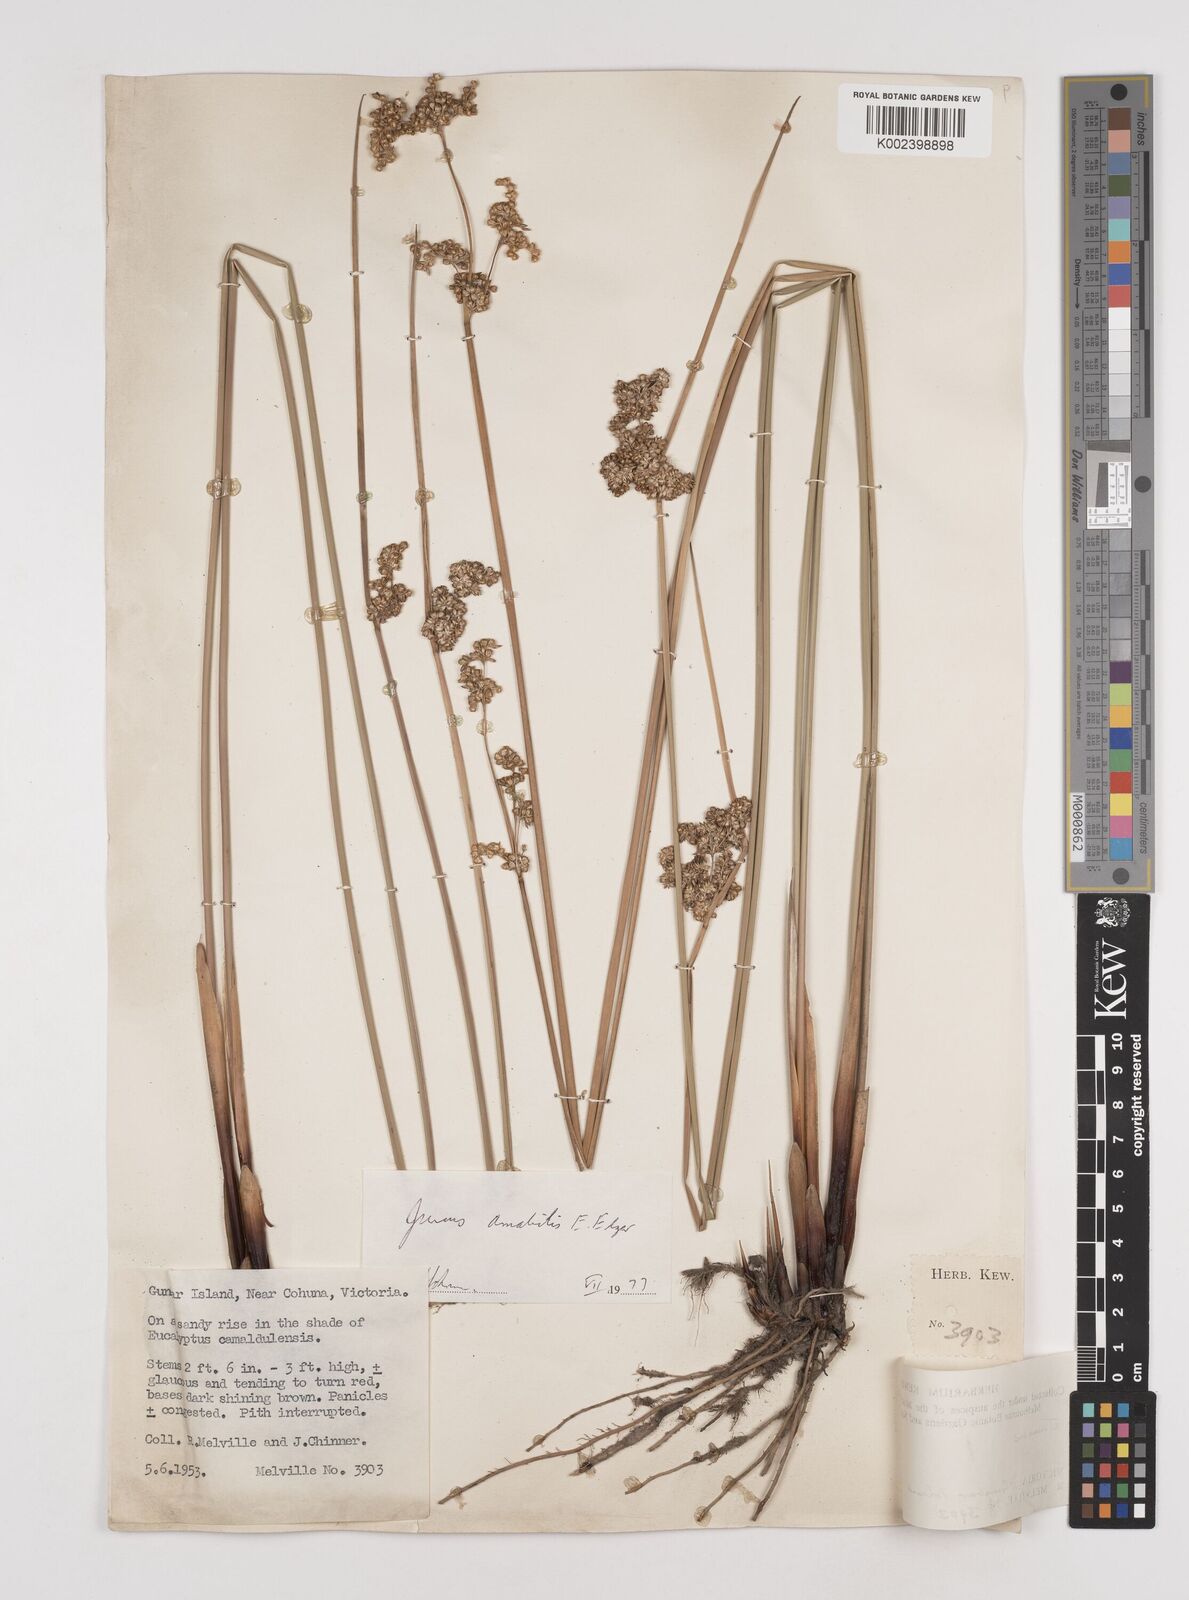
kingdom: Plantae
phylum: Tracheophyta
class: Liliopsida
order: Poales
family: Juncaceae
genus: Juncus
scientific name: Juncus amabilis
